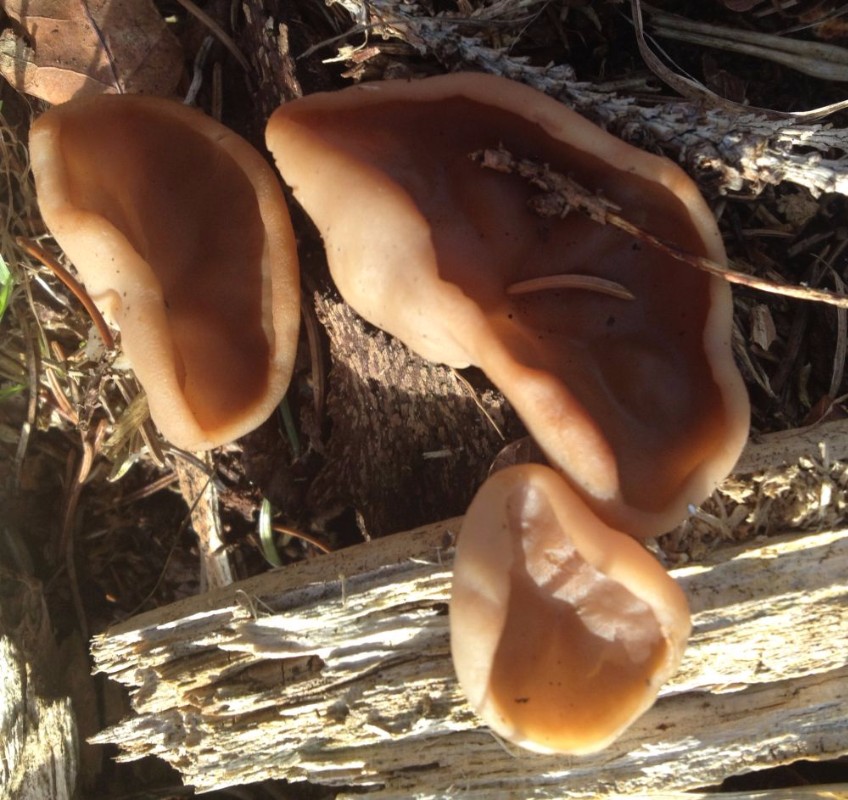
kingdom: Fungi
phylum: Ascomycota
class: Pezizomycetes
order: Pezizales
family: Discinaceae
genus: Discina
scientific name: Discina ancilis
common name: udbredt stenmorkel
